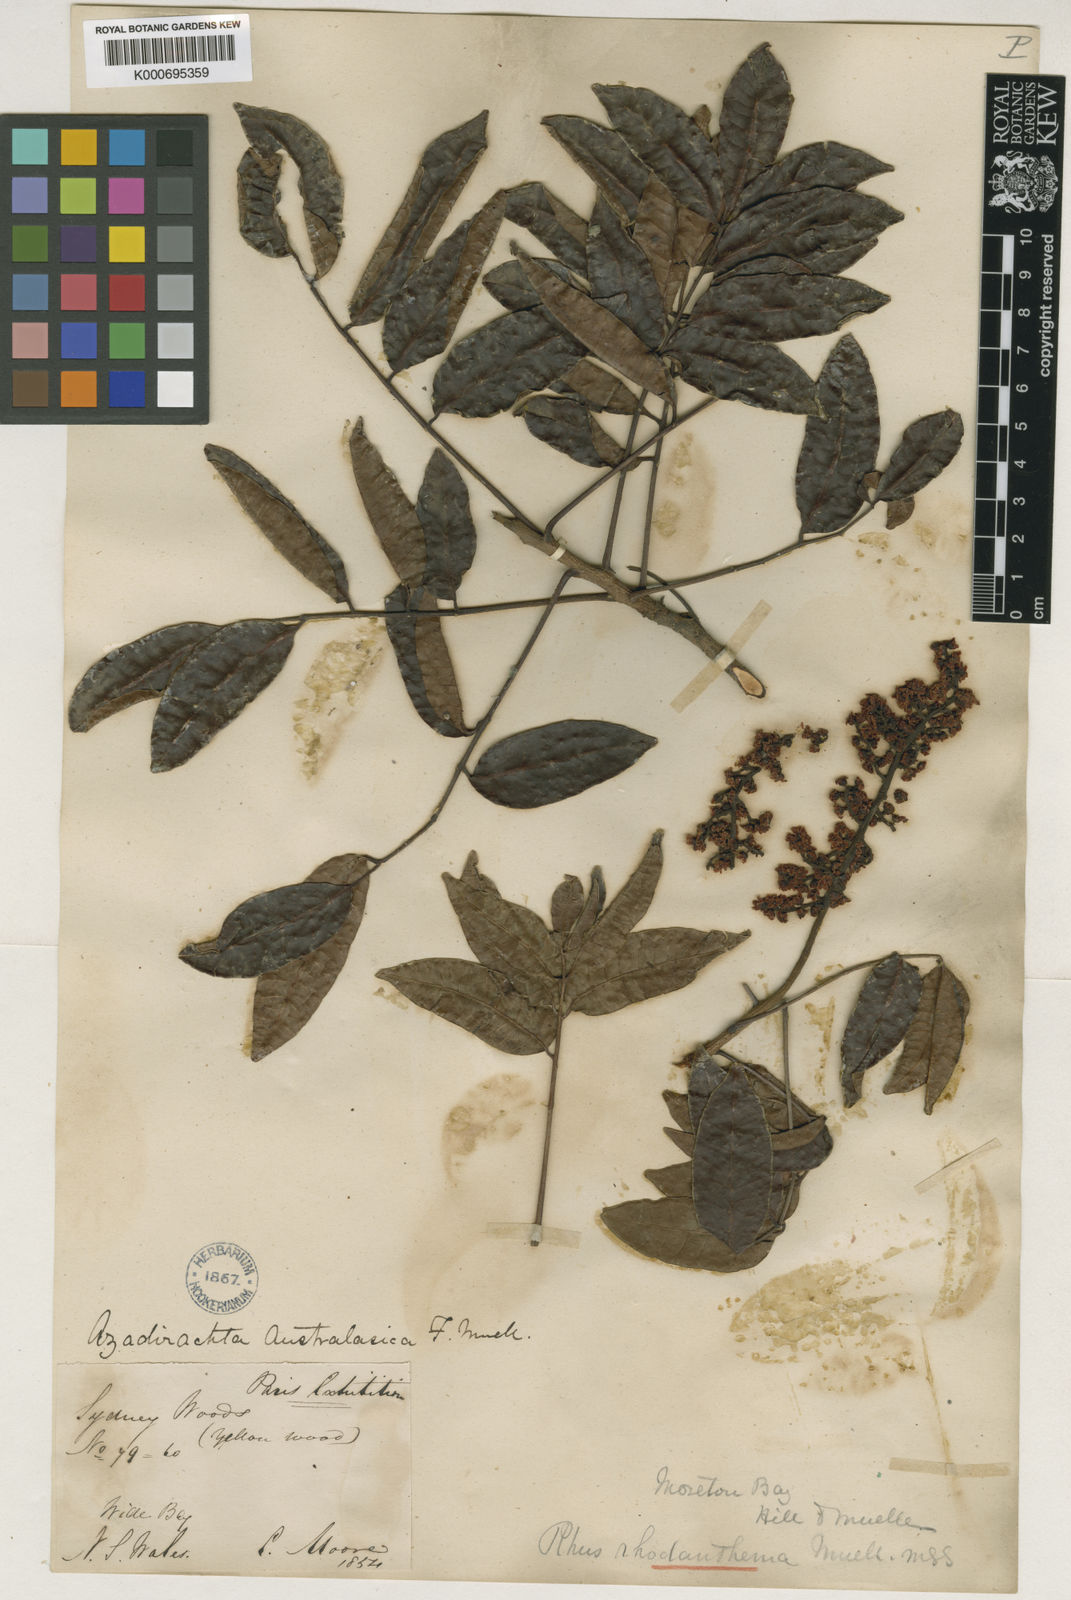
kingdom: Plantae
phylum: Tracheophyta
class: Magnoliopsida
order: Sapindales
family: Anacardiaceae
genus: Rhodosphaera
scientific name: Rhodosphaera rhodanthema
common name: Tulip satinwood
